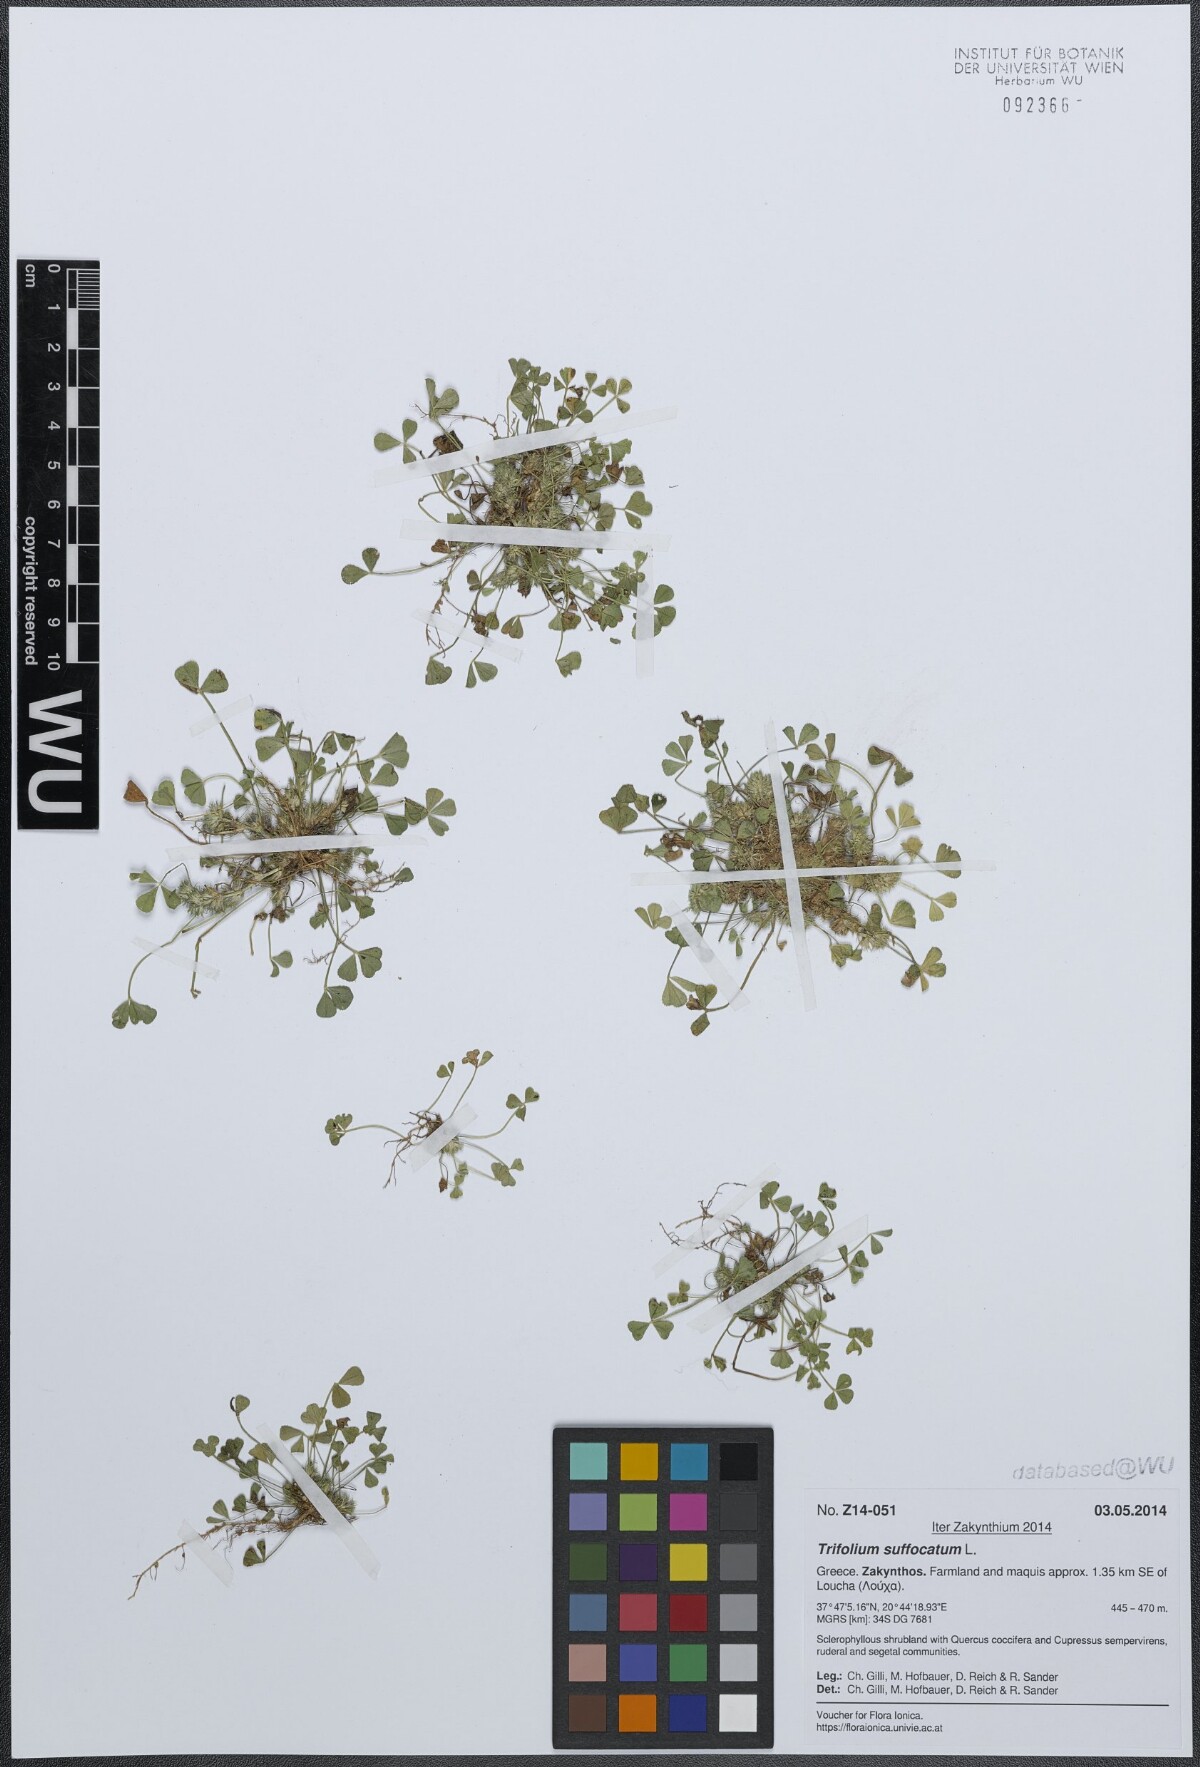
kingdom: Plantae
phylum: Tracheophyta
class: Magnoliopsida
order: Fabales
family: Fabaceae
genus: Trifolium
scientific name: Trifolium suffocatum
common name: Suffocated clover
